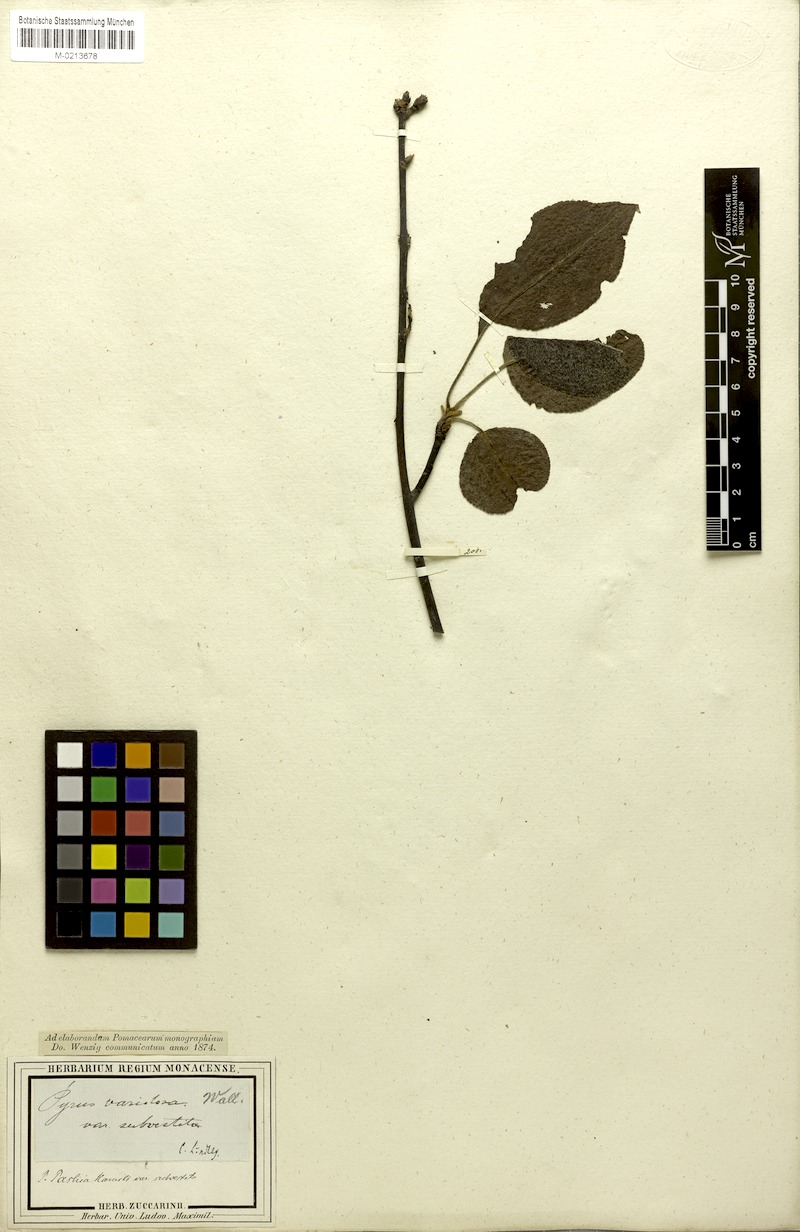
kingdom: Plantae
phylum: Tracheophyta
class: Magnoliopsida
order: Rosales
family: Rosaceae
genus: Pyrus
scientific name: Pyrus pashia
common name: Himalayan pear
